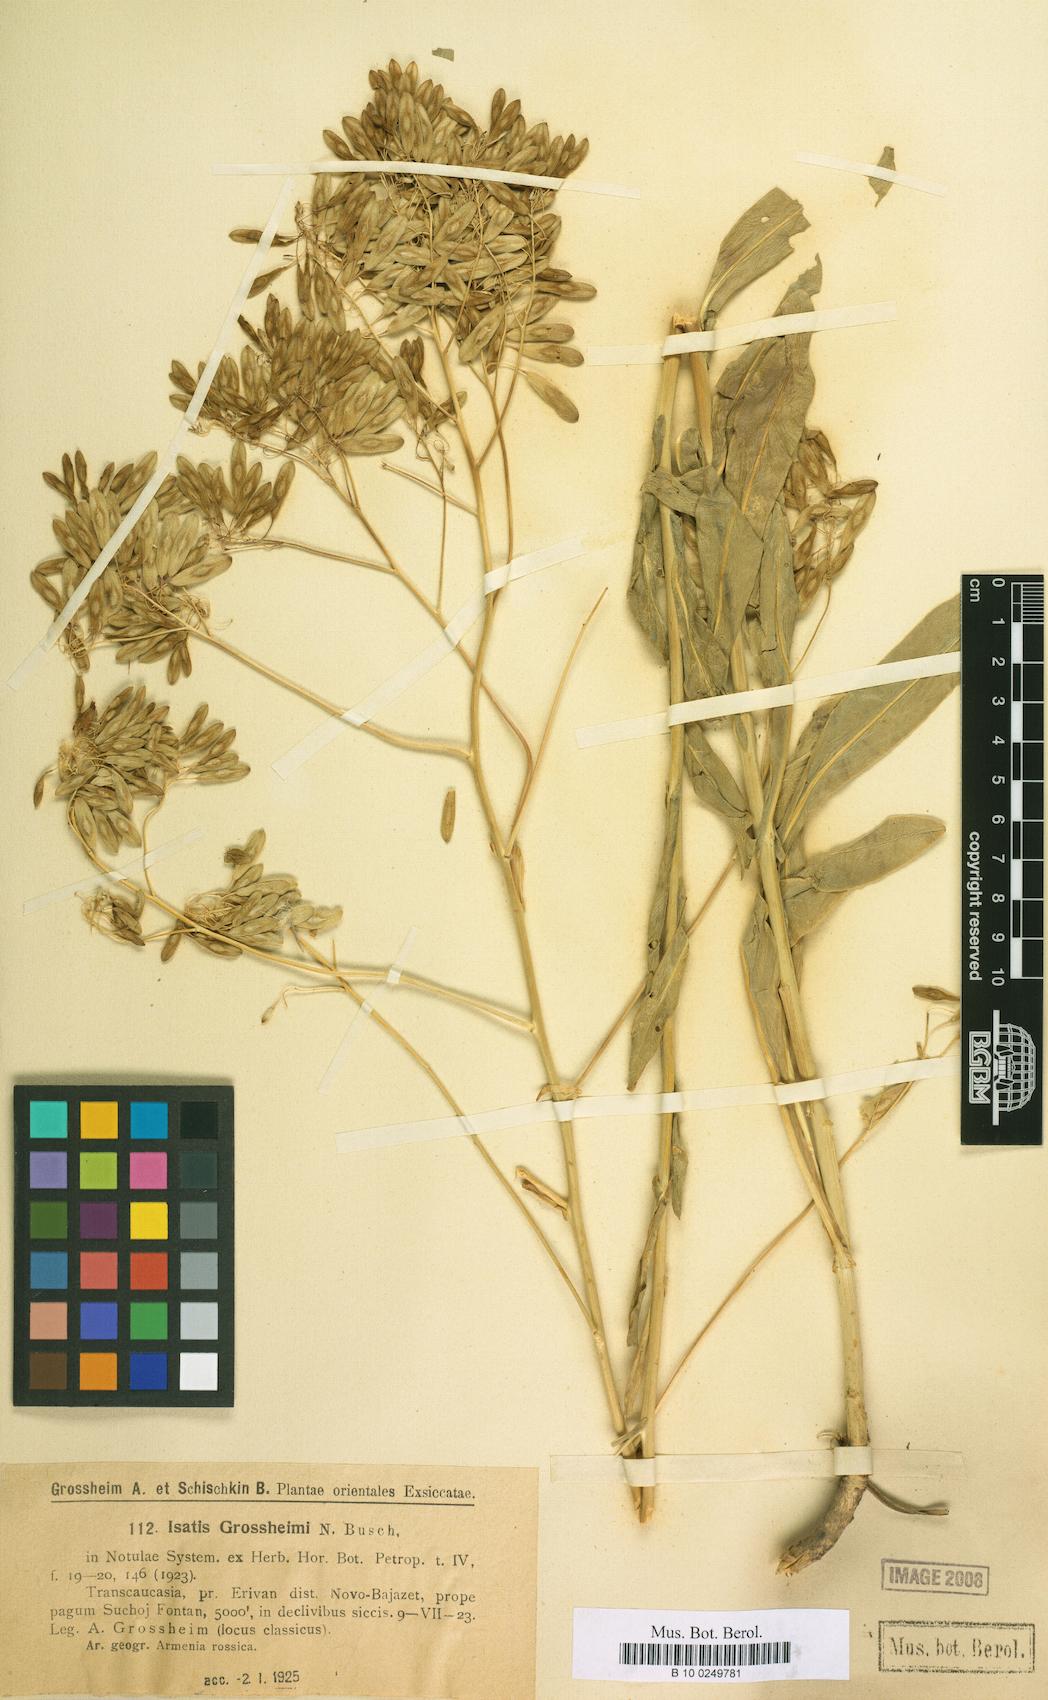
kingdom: Plantae
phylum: Tracheophyta
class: Magnoliopsida
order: Brassicales
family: Brassicaceae
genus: Isatis
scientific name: Isatis tomentella
